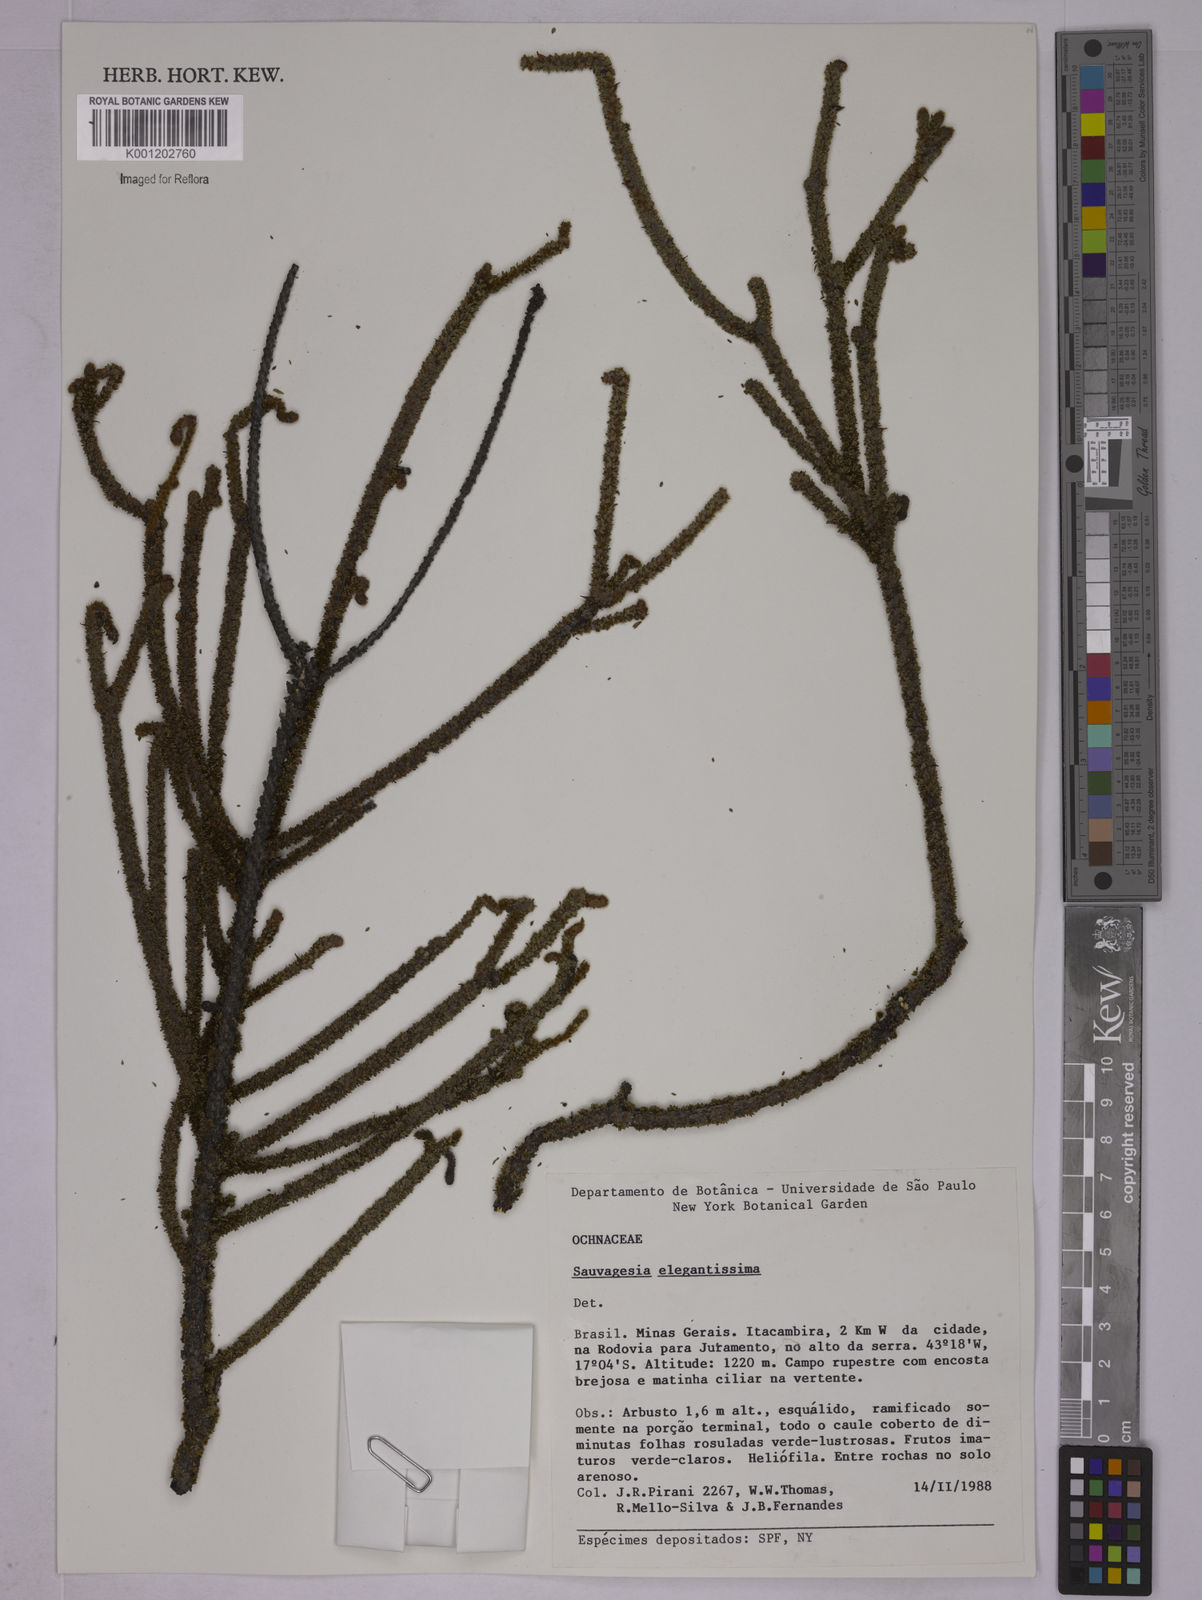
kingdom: Plantae
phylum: Tracheophyta
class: Magnoliopsida
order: Malpighiales
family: Ochnaceae
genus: Sauvagesia
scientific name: Sauvagesia elegantissima
